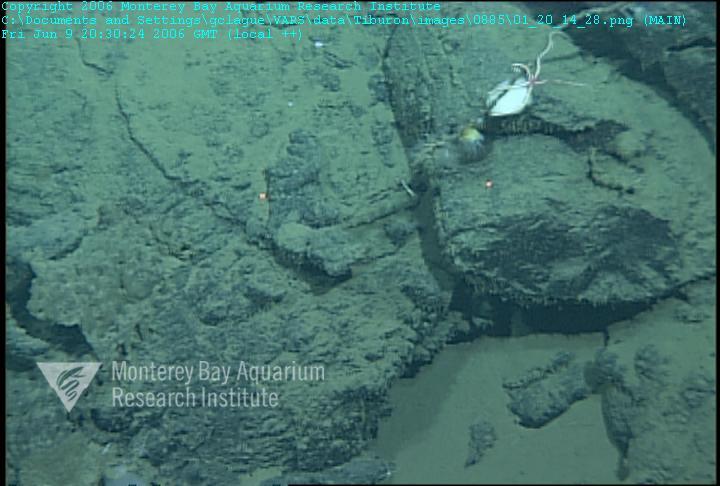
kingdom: Animalia
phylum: Porifera
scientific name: Porifera
